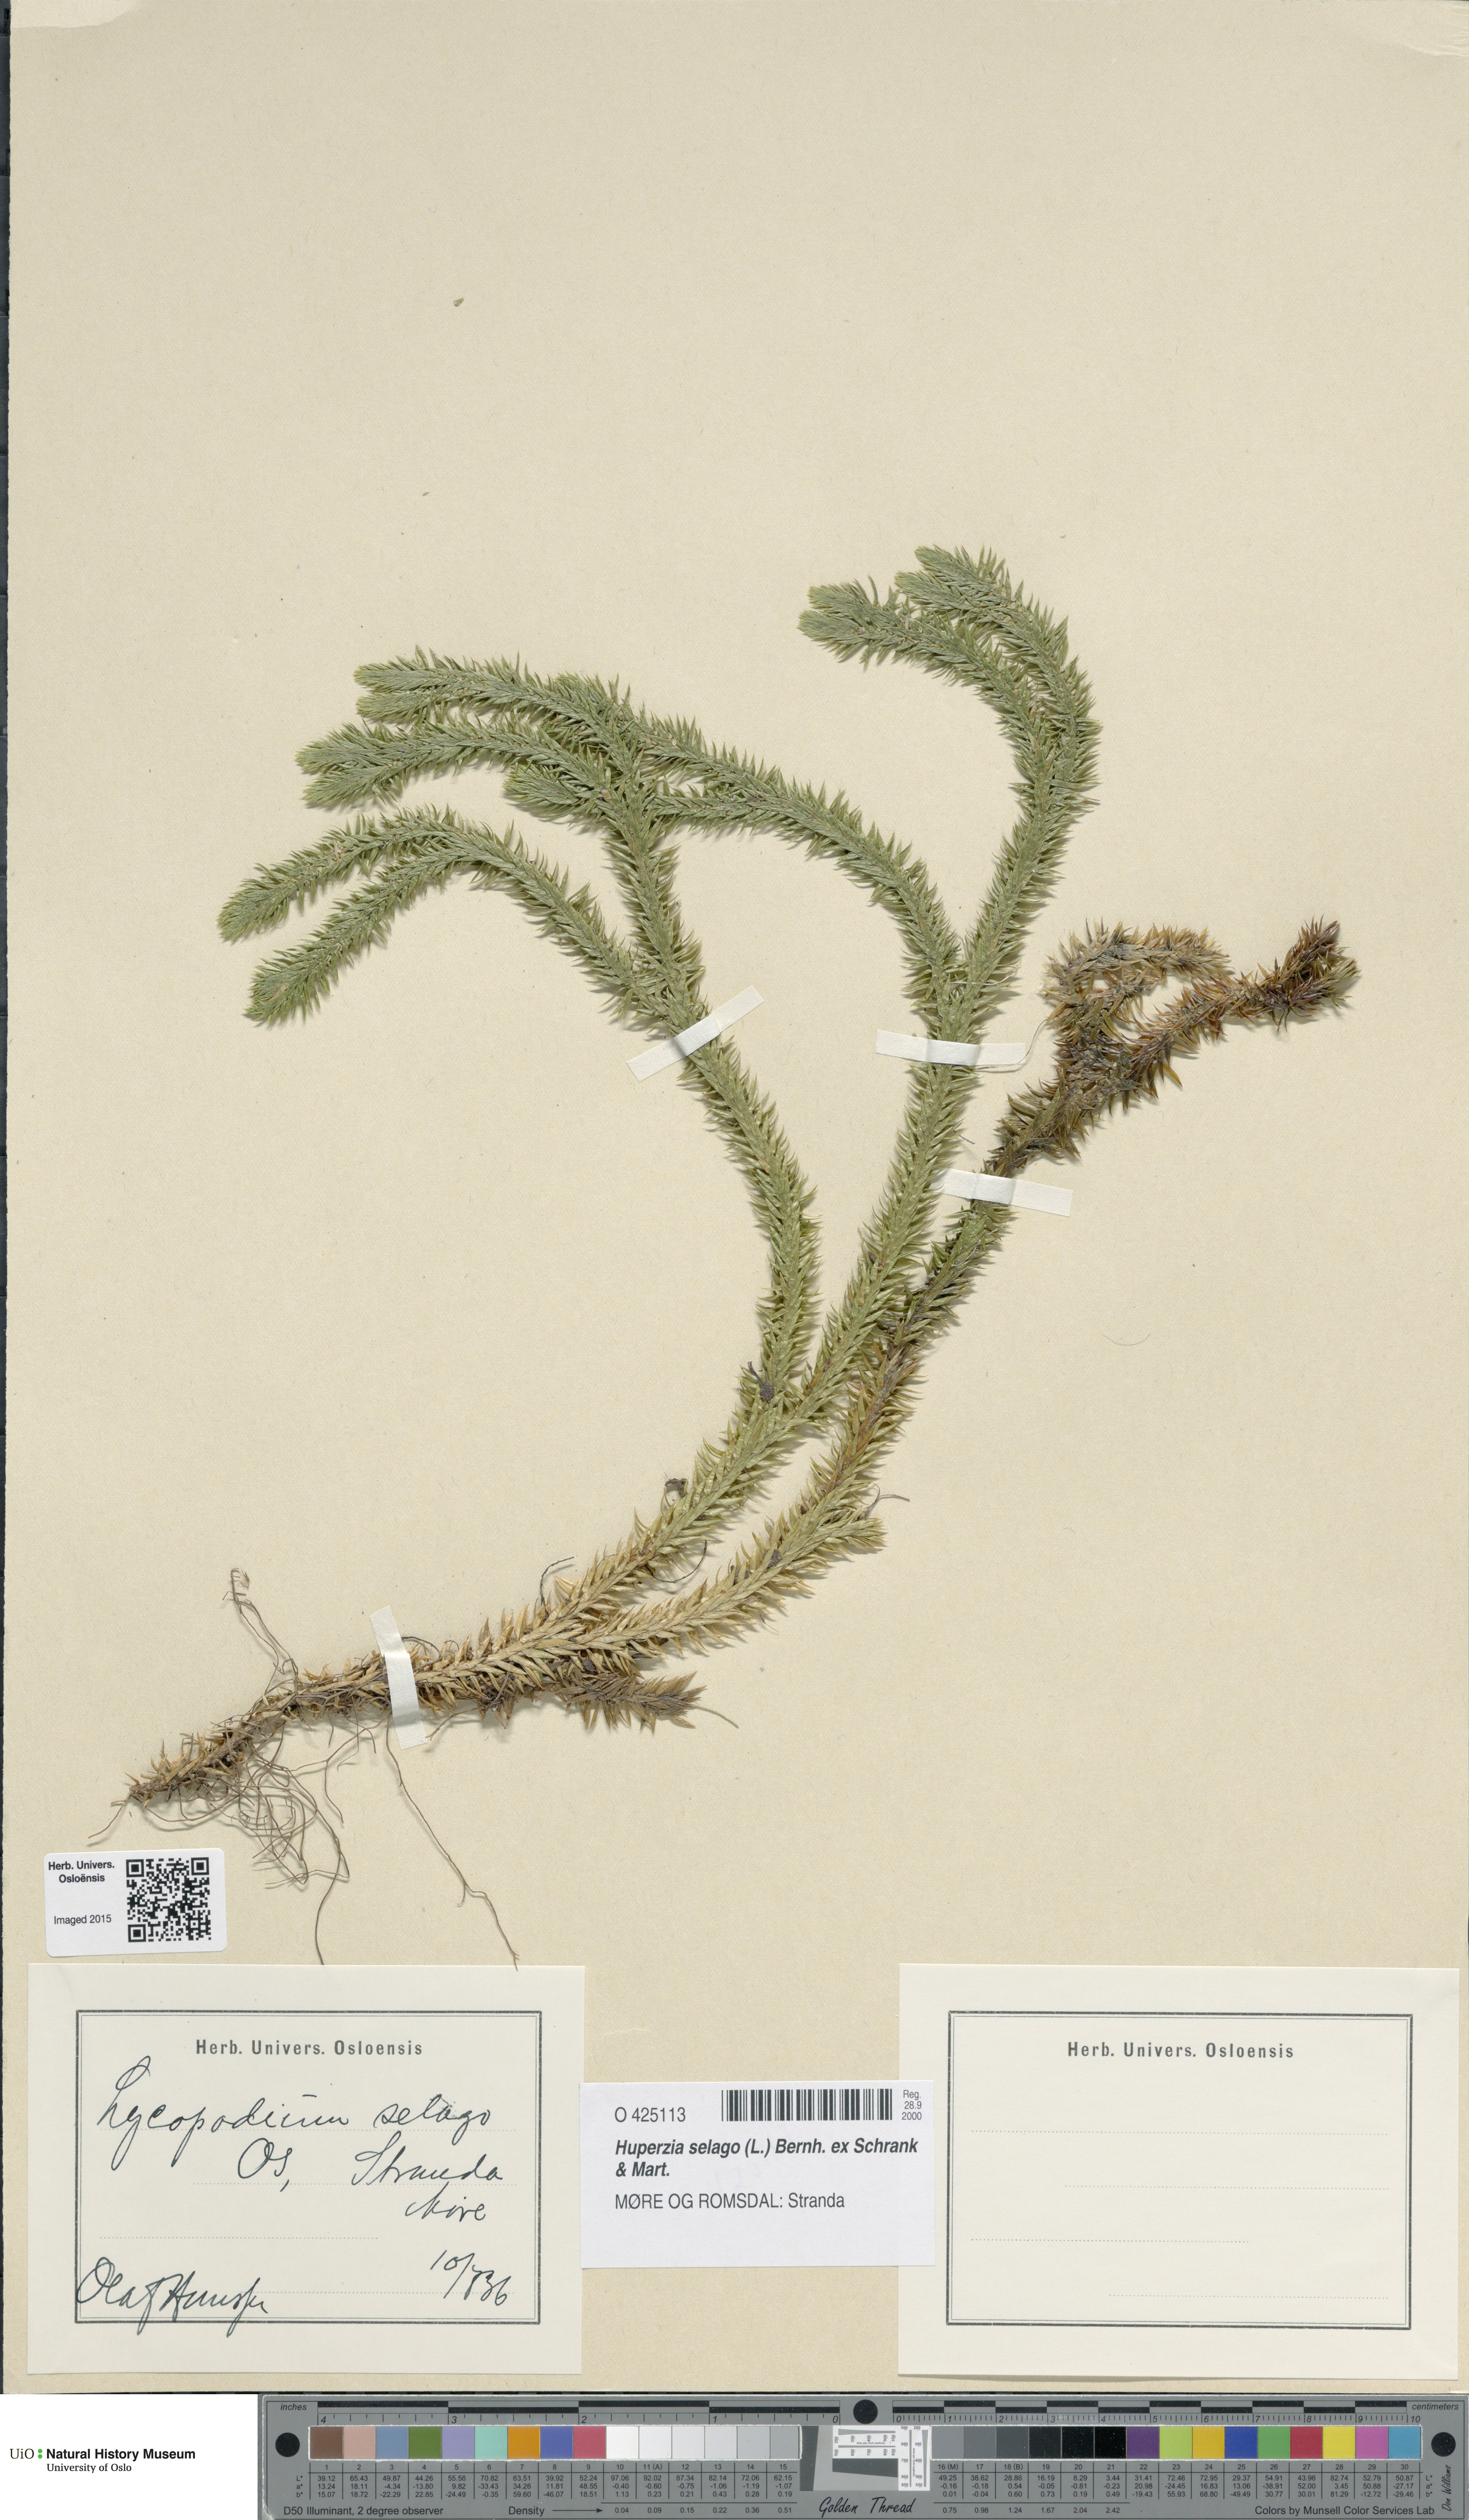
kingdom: Plantae
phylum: Tracheophyta
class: Lycopodiopsida
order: Lycopodiales
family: Lycopodiaceae
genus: Huperzia
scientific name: Huperzia selago
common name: Northern firmoss
